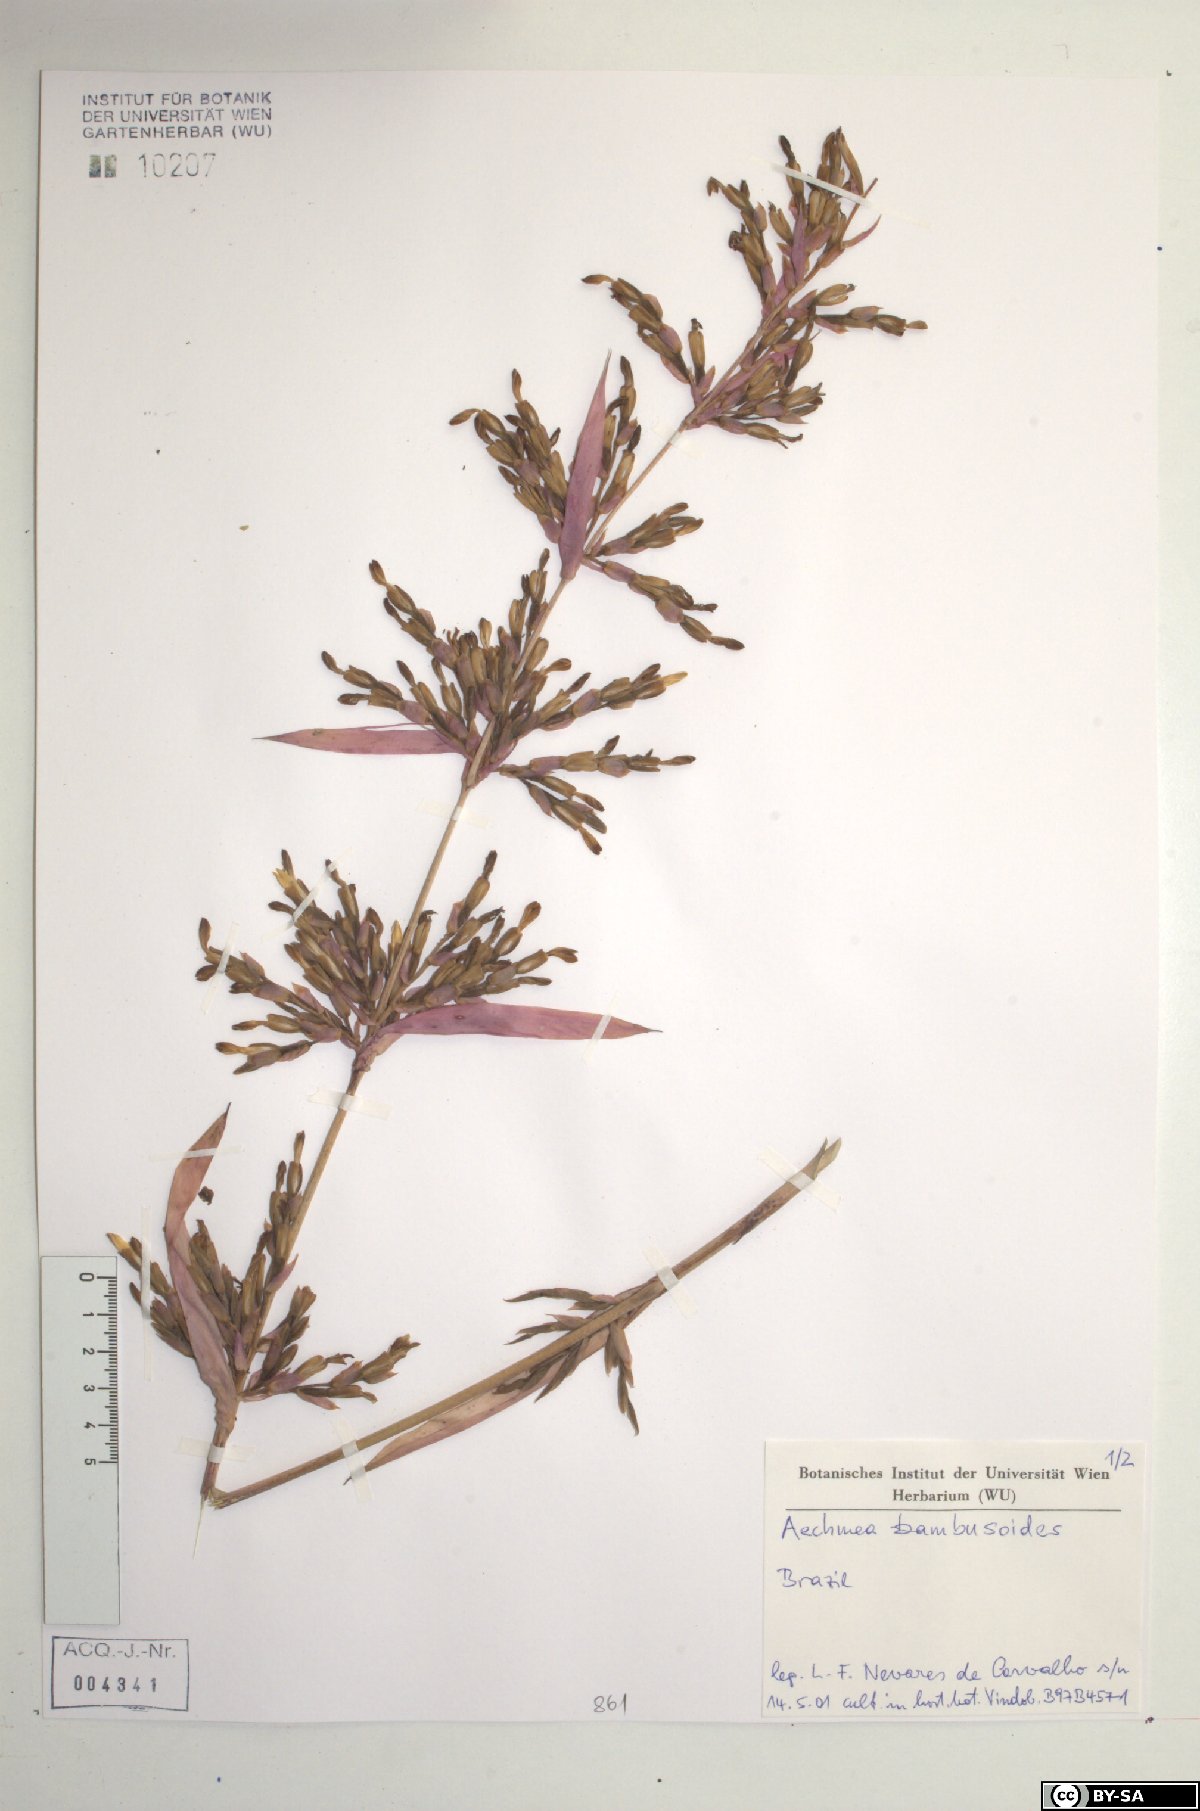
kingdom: Plantae
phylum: Tracheophyta
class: Liliopsida
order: Poales
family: Bromeliaceae
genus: Aechmea
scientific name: Aechmea bambusoides
